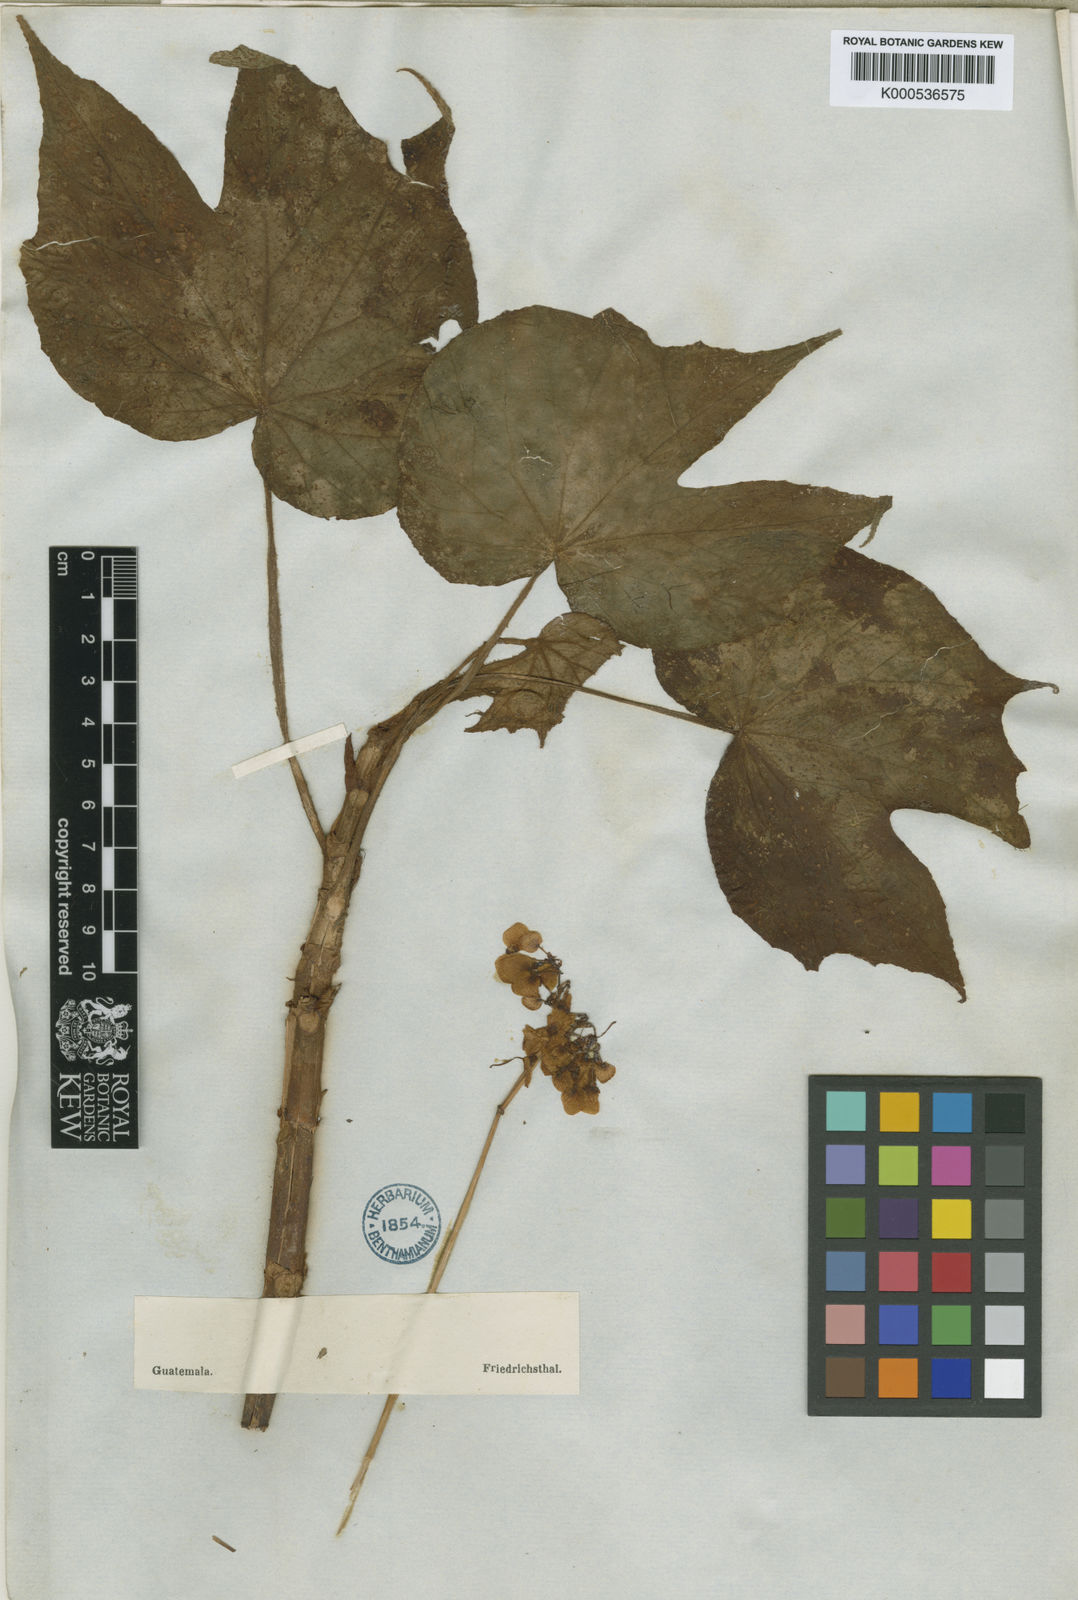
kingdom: Plantae
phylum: Tracheophyta
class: Magnoliopsida
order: Cucurbitales
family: Begoniaceae
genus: Begonia
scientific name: Begonia
